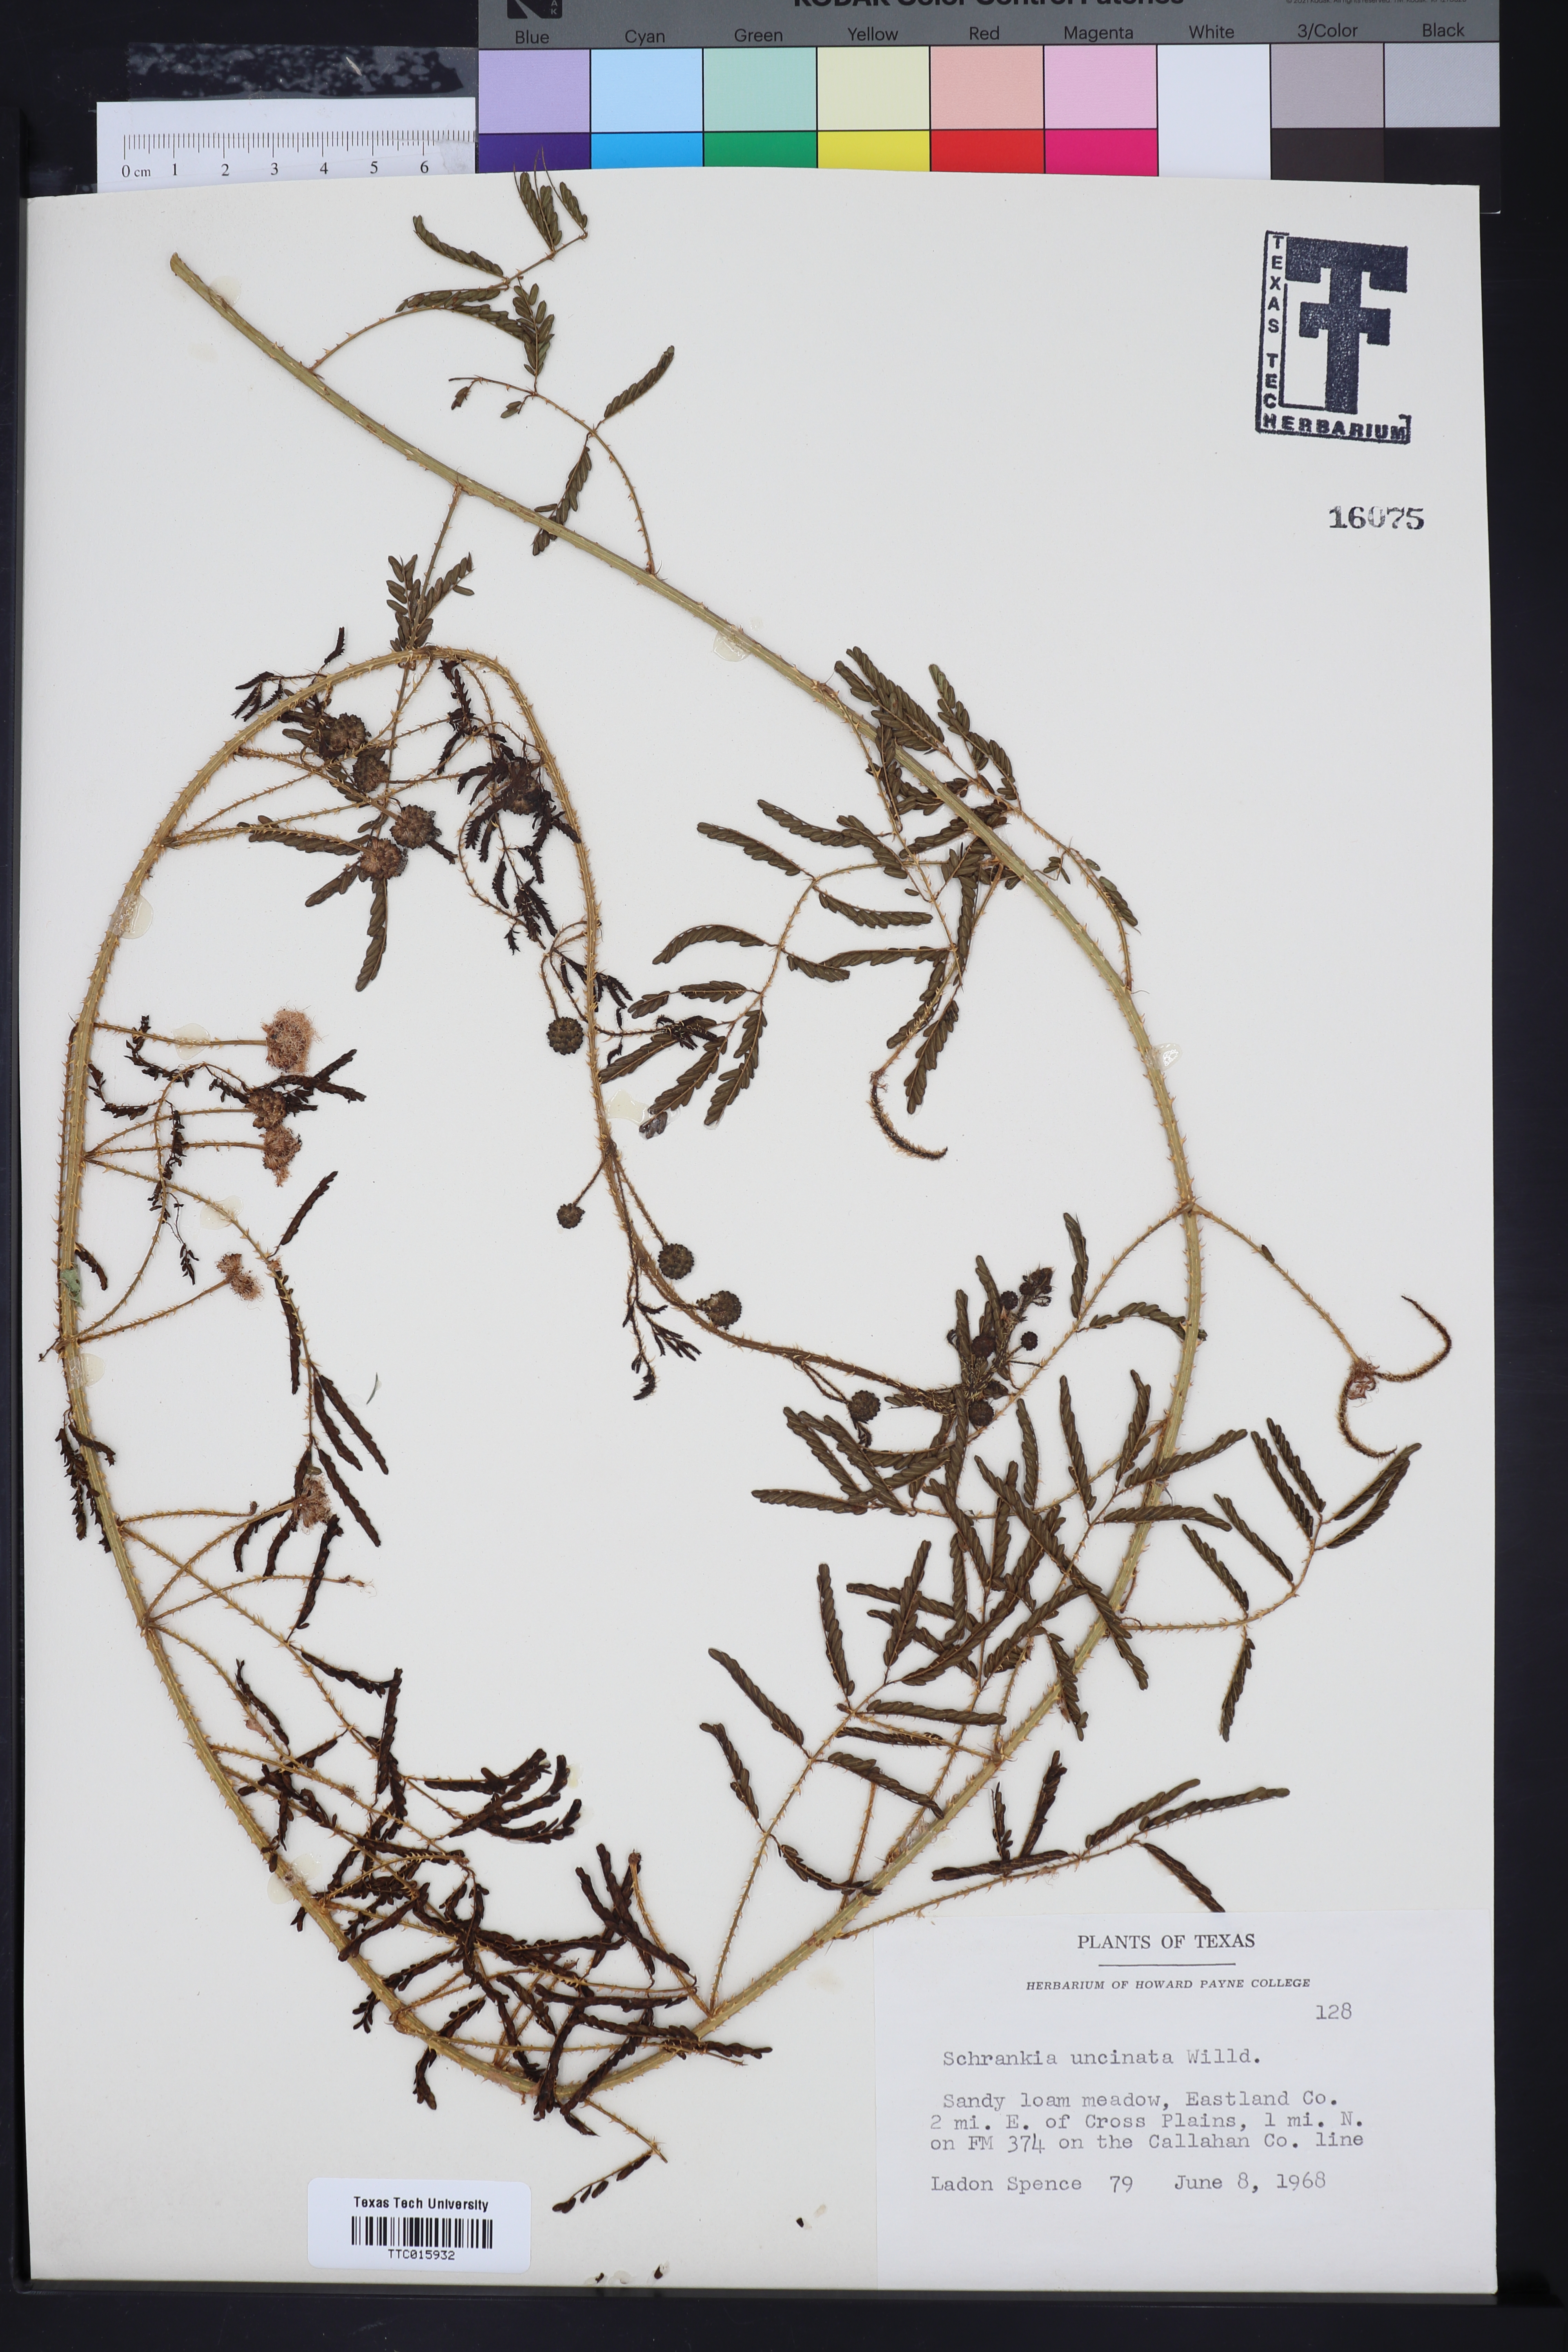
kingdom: Plantae
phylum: Tracheophyta
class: Magnoliopsida
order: Fabales
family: Fabaceae
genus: Mimosa
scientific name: Mimosa quadrivalvis
